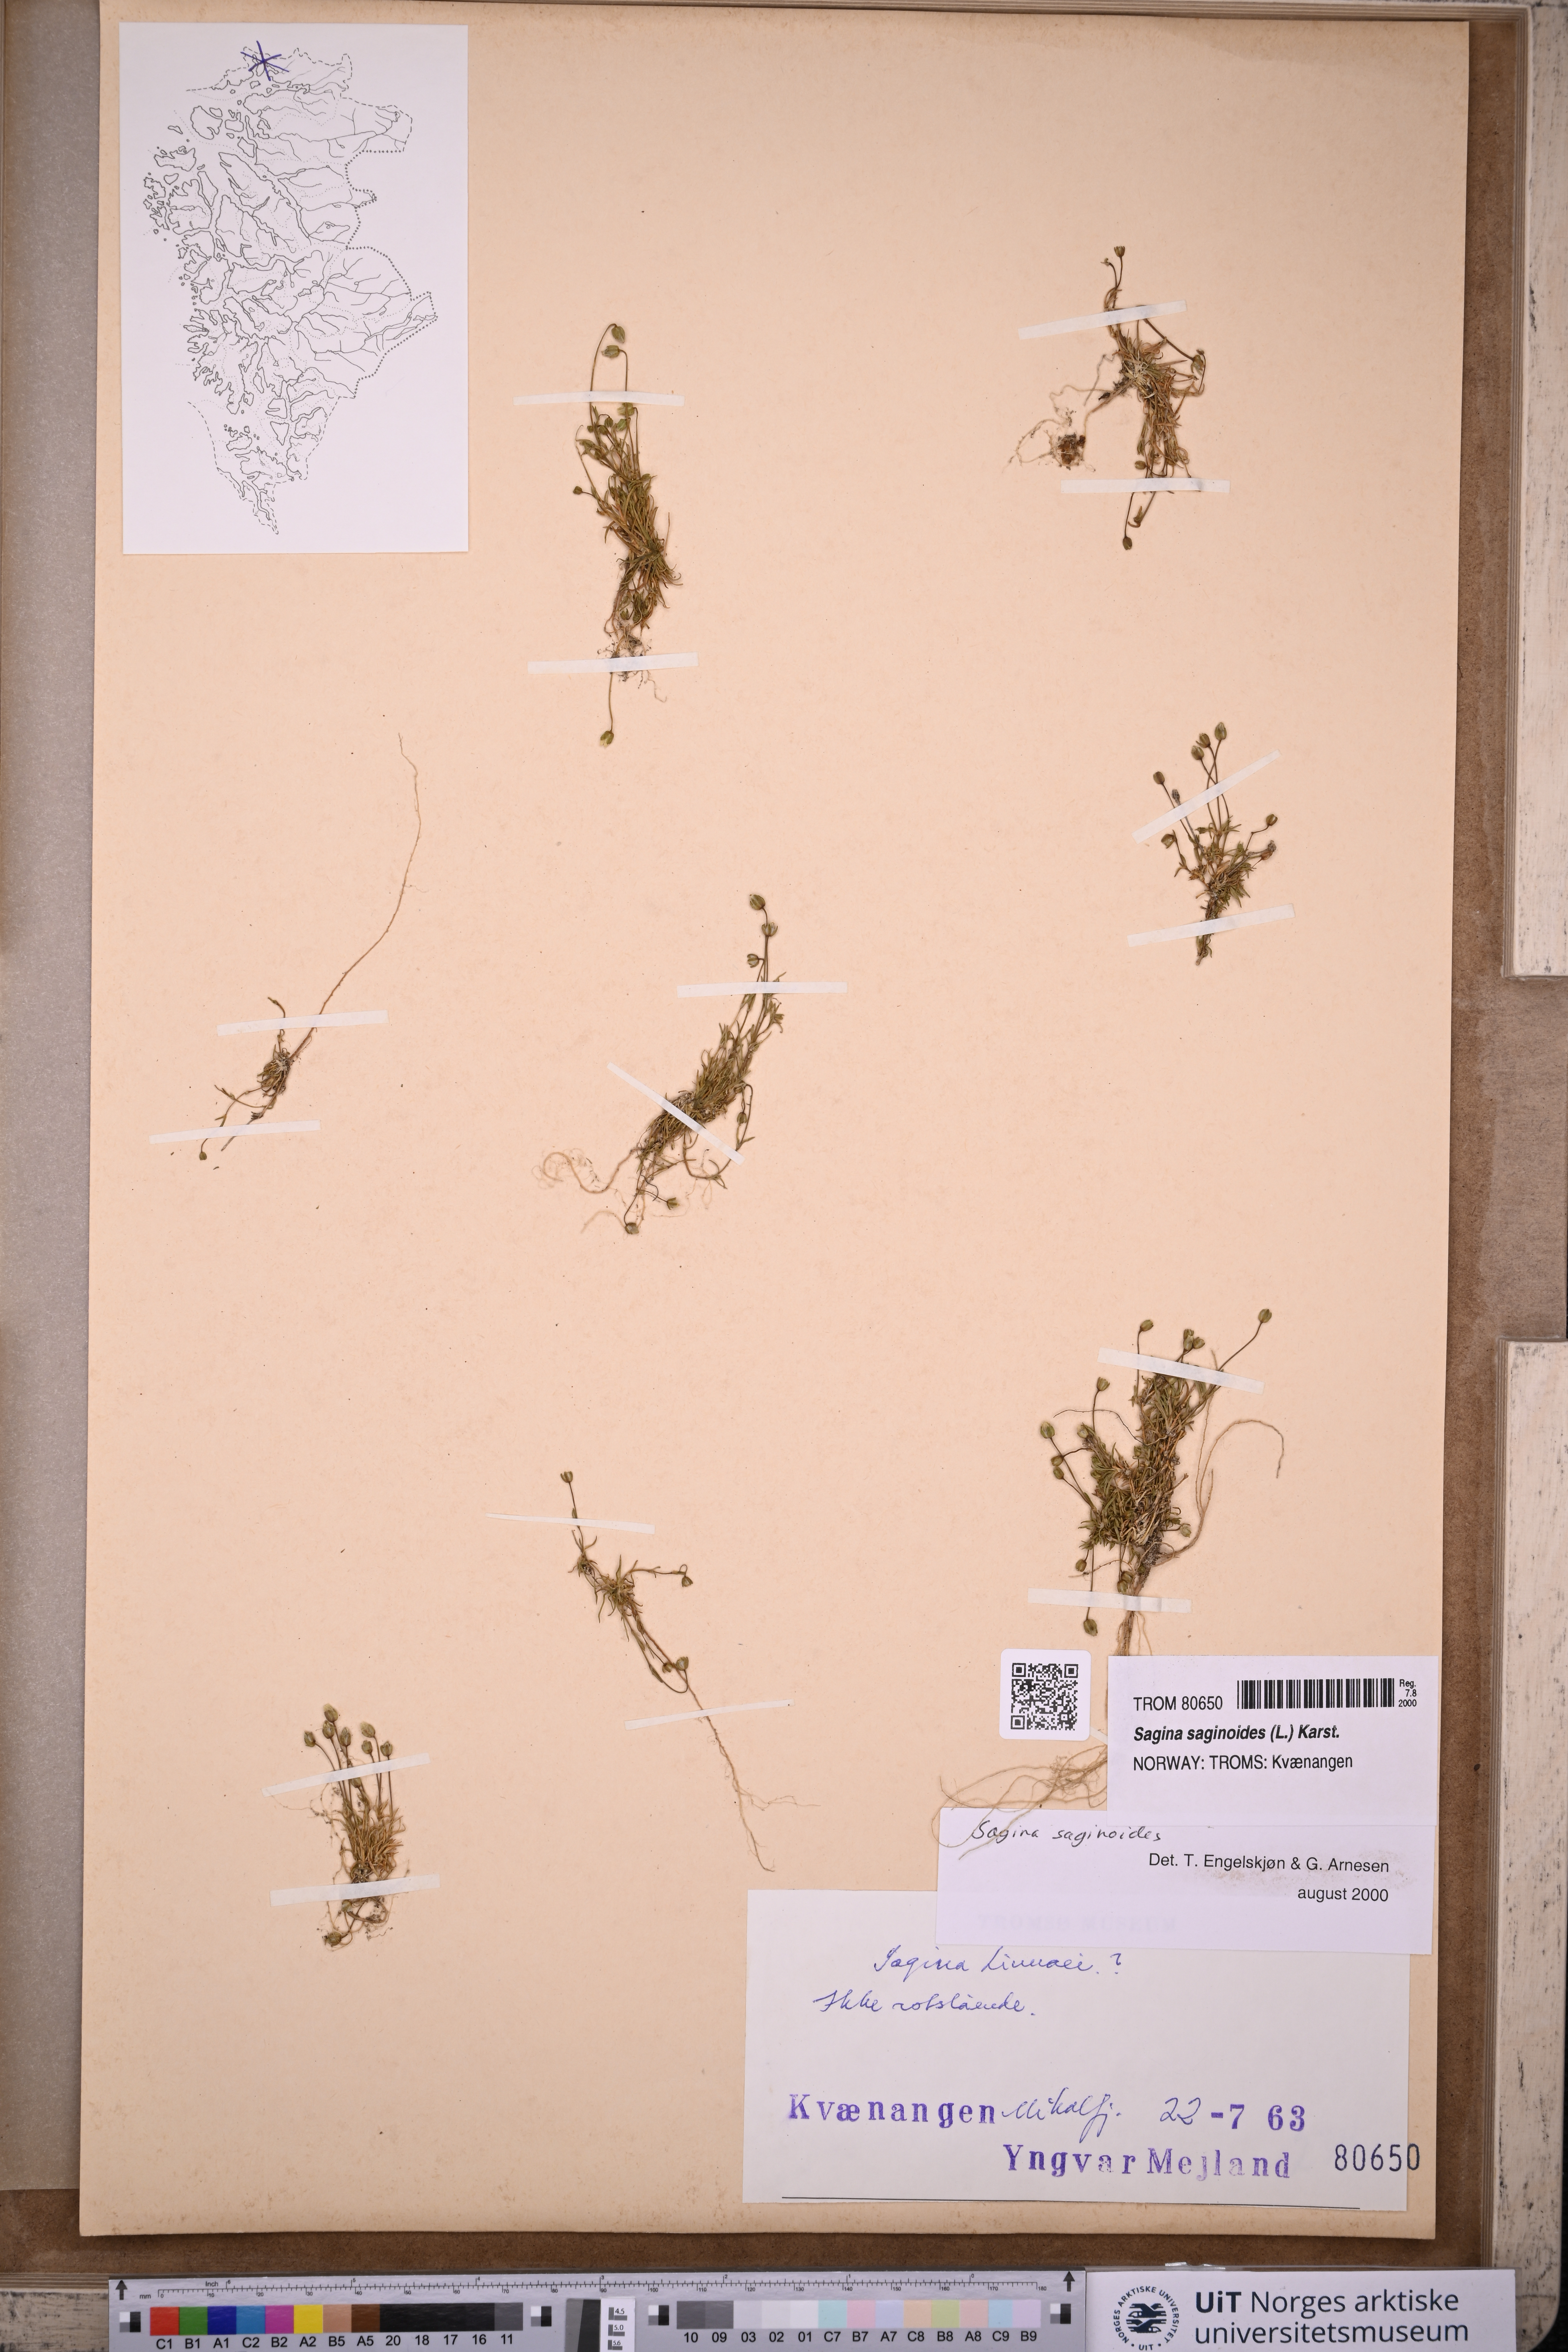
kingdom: Plantae
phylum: Tracheophyta
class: Magnoliopsida
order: Caryophyllales
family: Caryophyllaceae
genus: Sagina
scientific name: Sagina saginoides
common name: Alpine pearlwort
